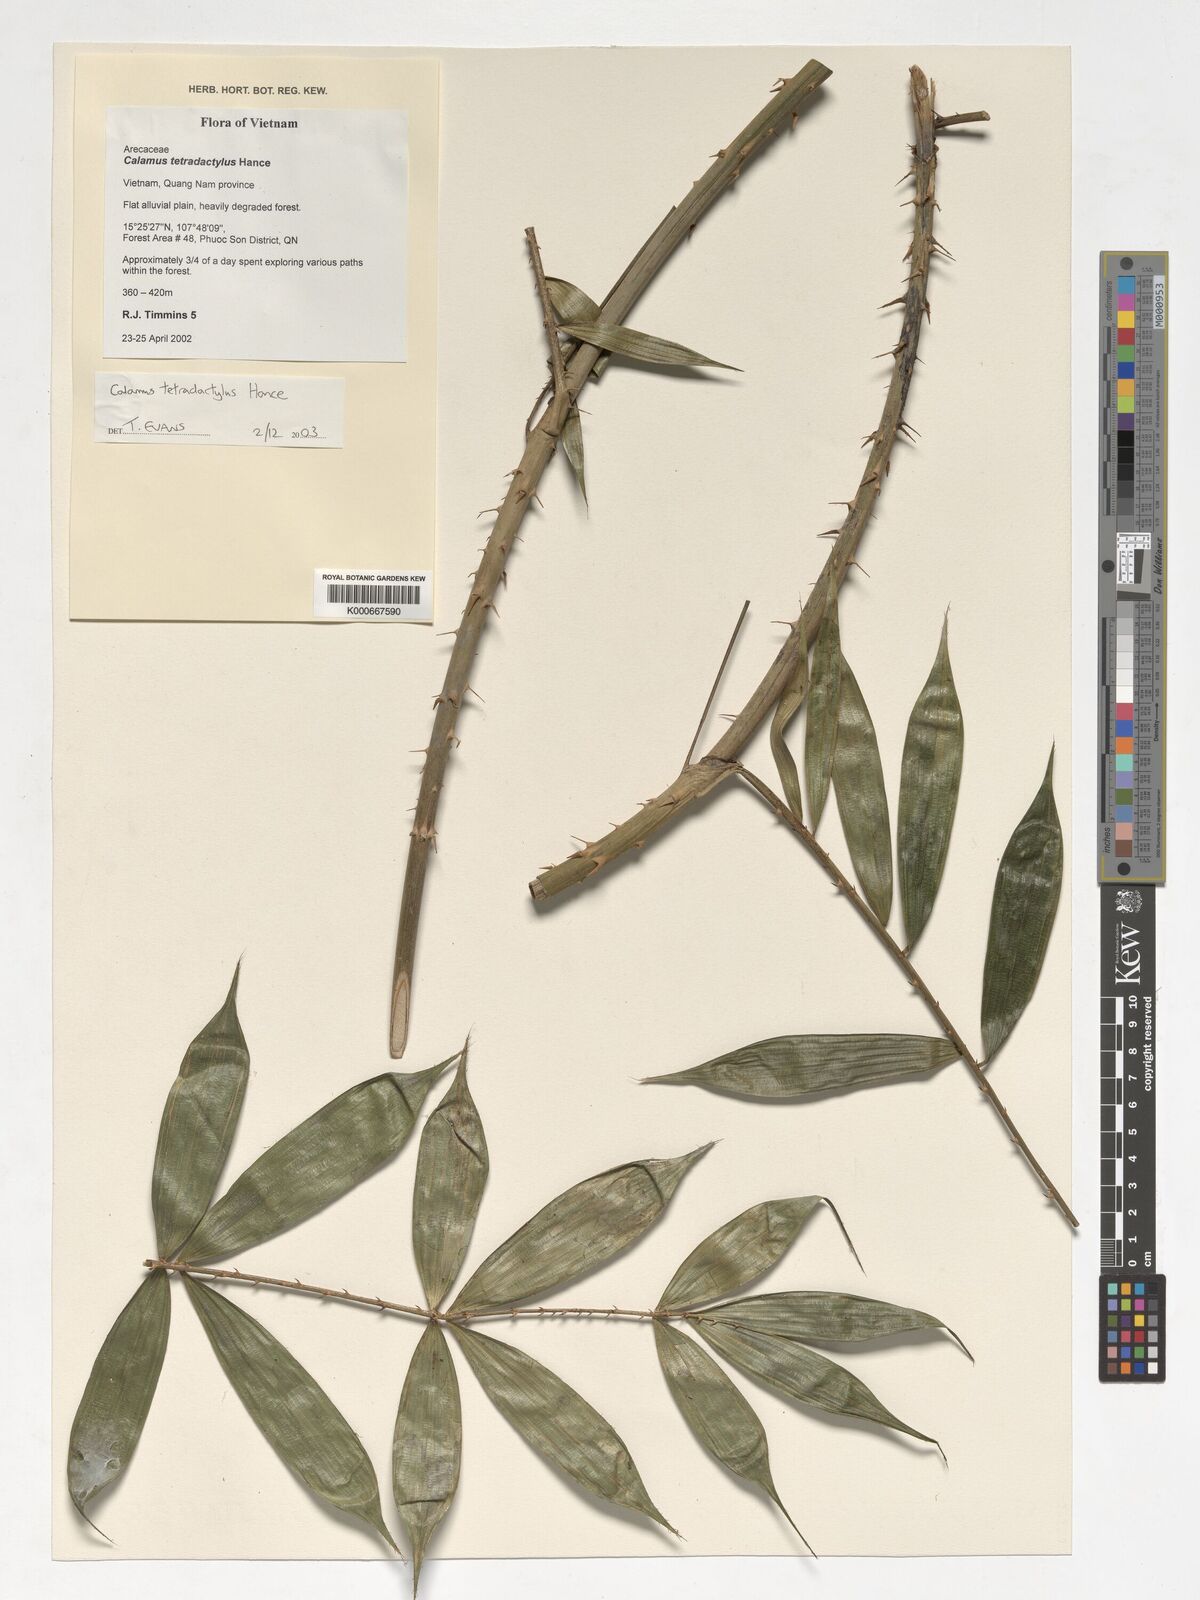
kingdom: Plantae
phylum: Tracheophyta
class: Liliopsida
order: Arecales
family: Arecaceae
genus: Calamus
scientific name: Calamus tetradactylus
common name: White rattan
